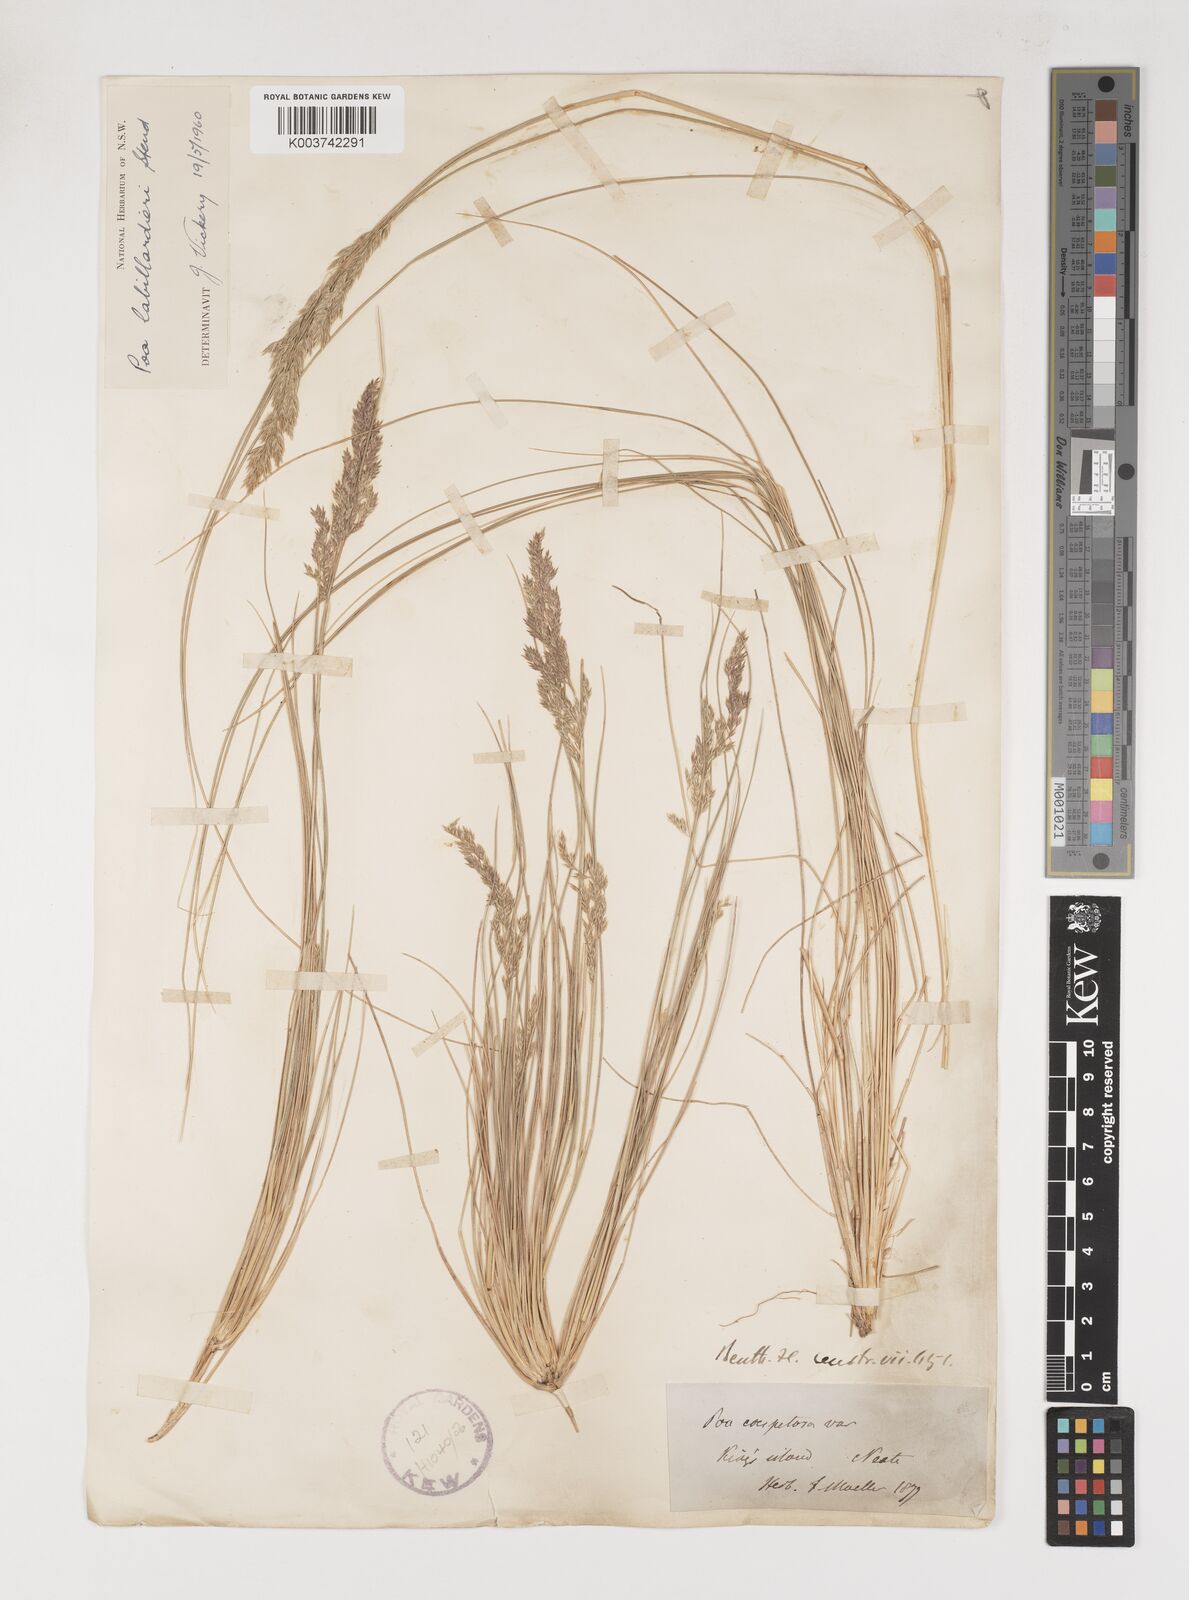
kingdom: Plantae
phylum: Tracheophyta
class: Liliopsida
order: Poales
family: Poaceae
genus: Poa
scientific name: Poa labillardierei
